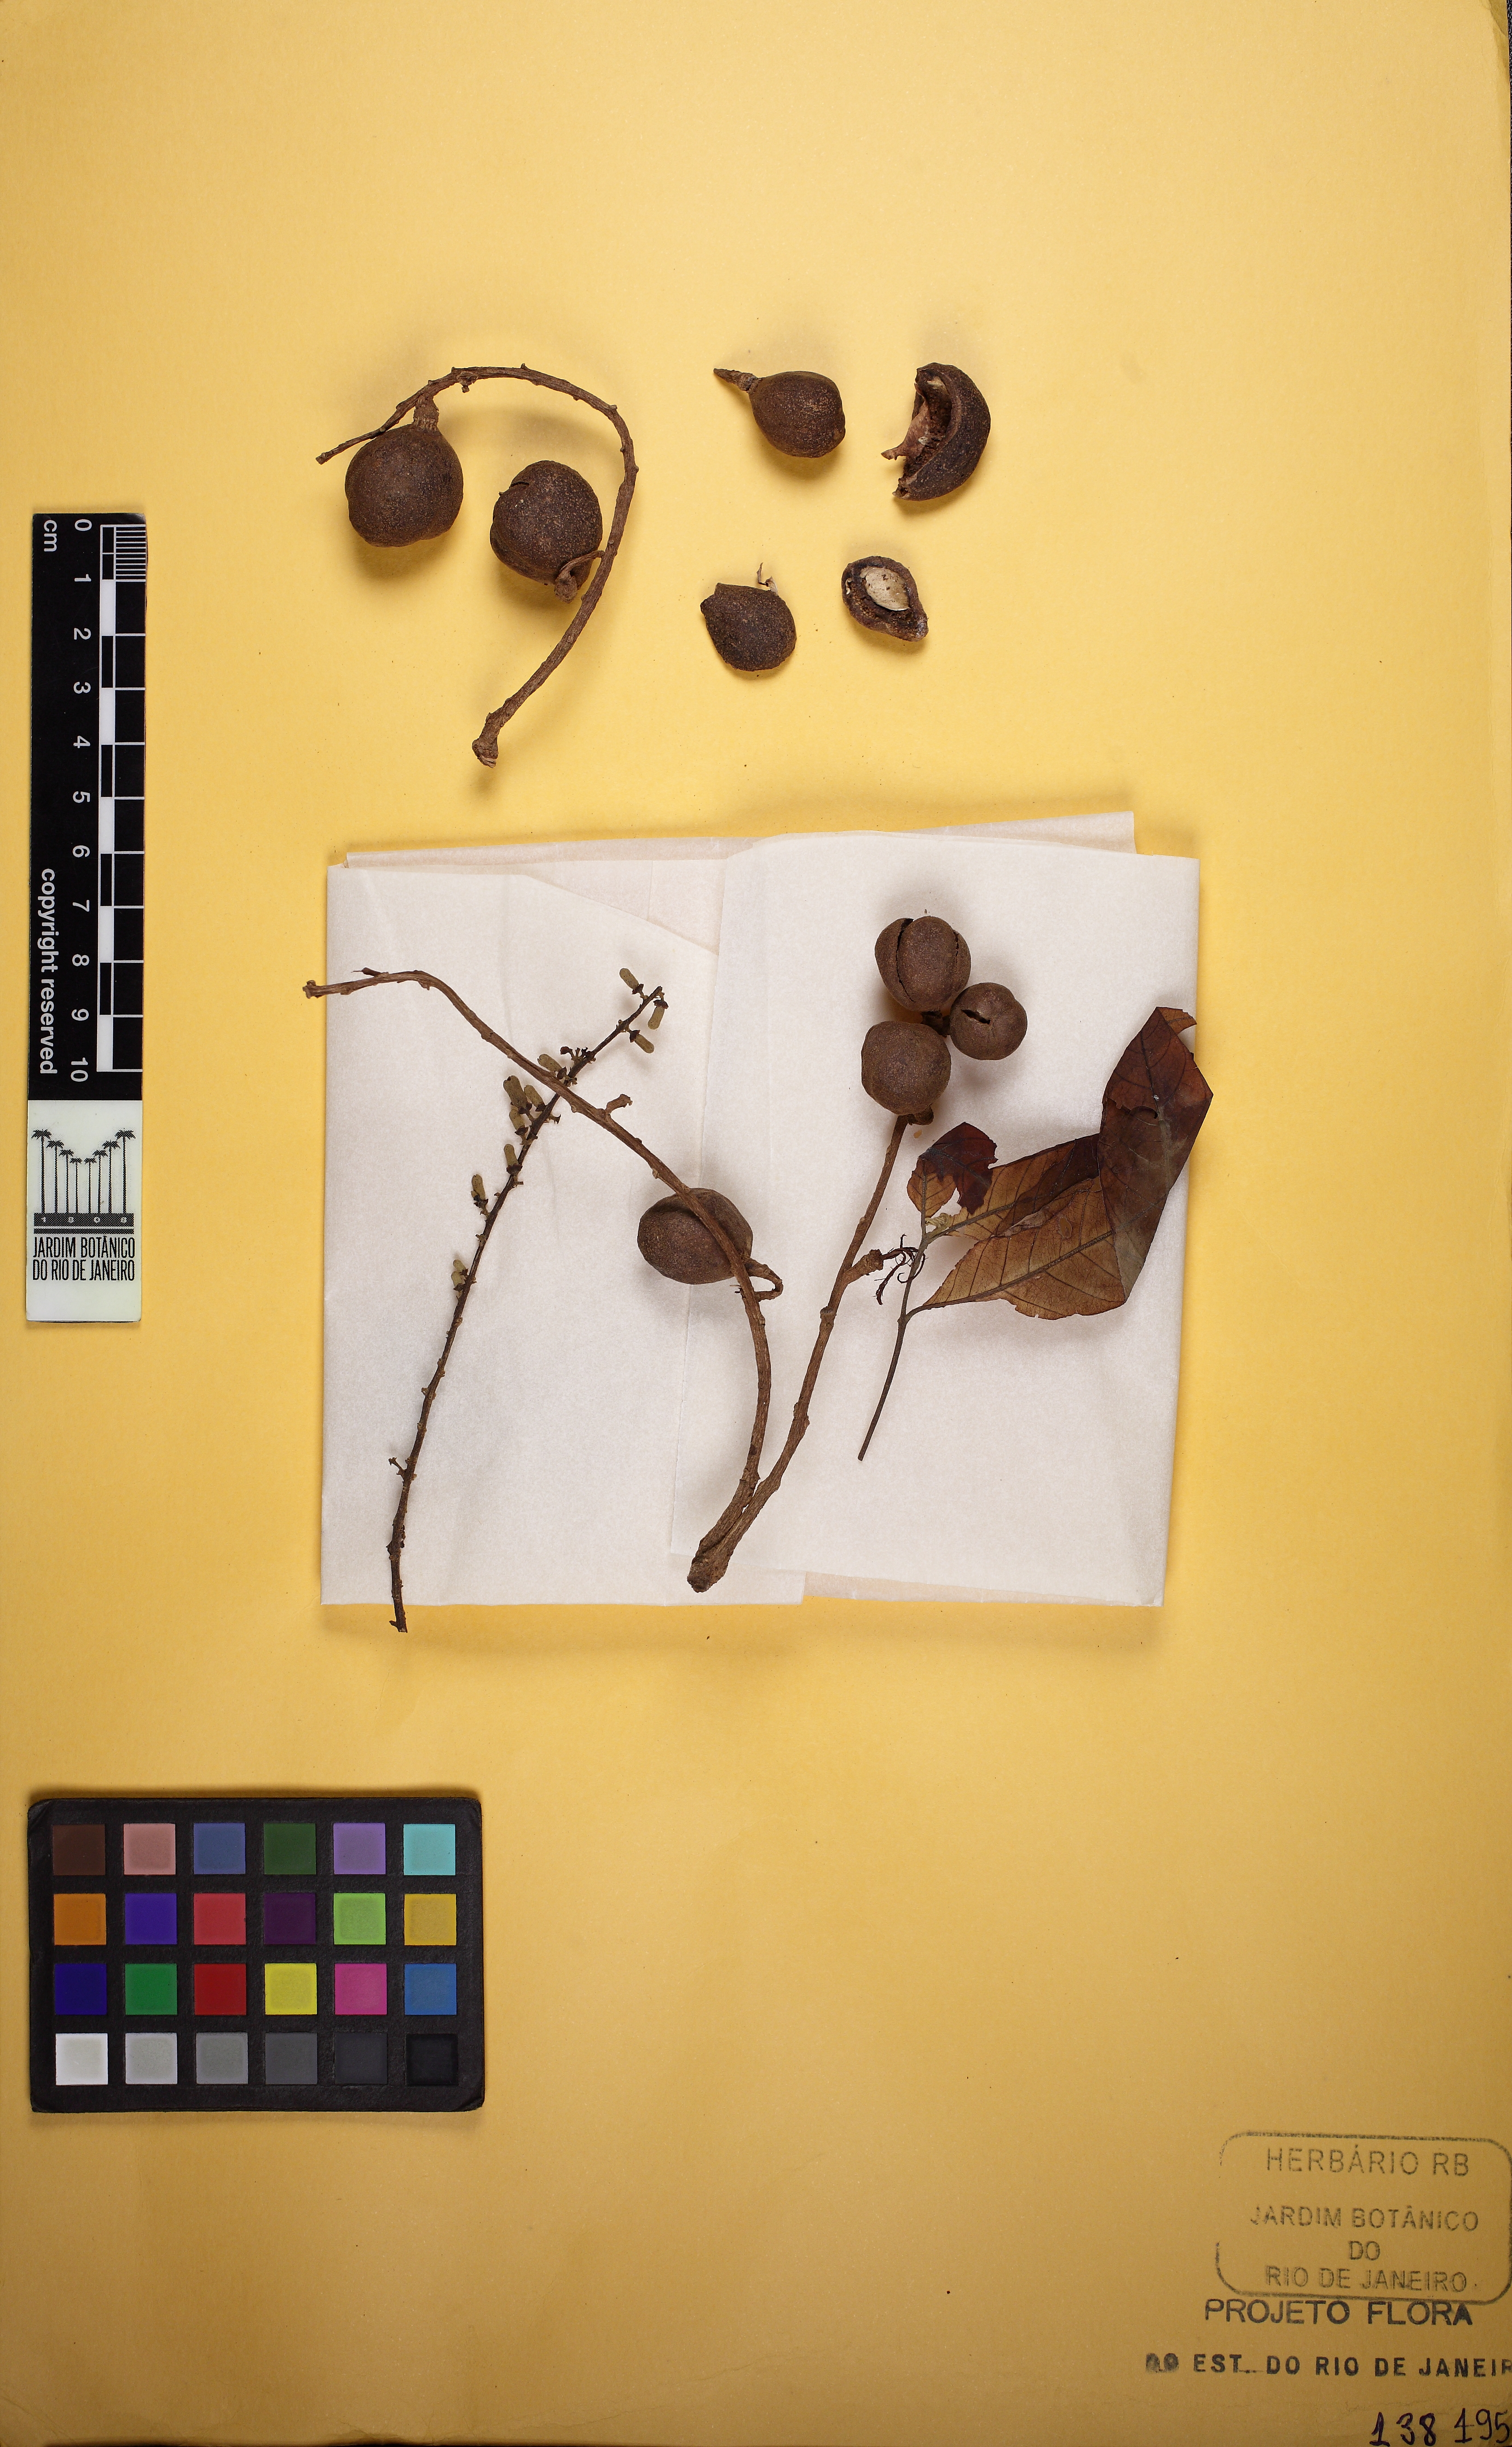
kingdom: Plantae
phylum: Tracheophyta
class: Magnoliopsida
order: Sapindales
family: Meliaceae
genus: Guarea
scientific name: Guarea guidonia
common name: American muskwood
